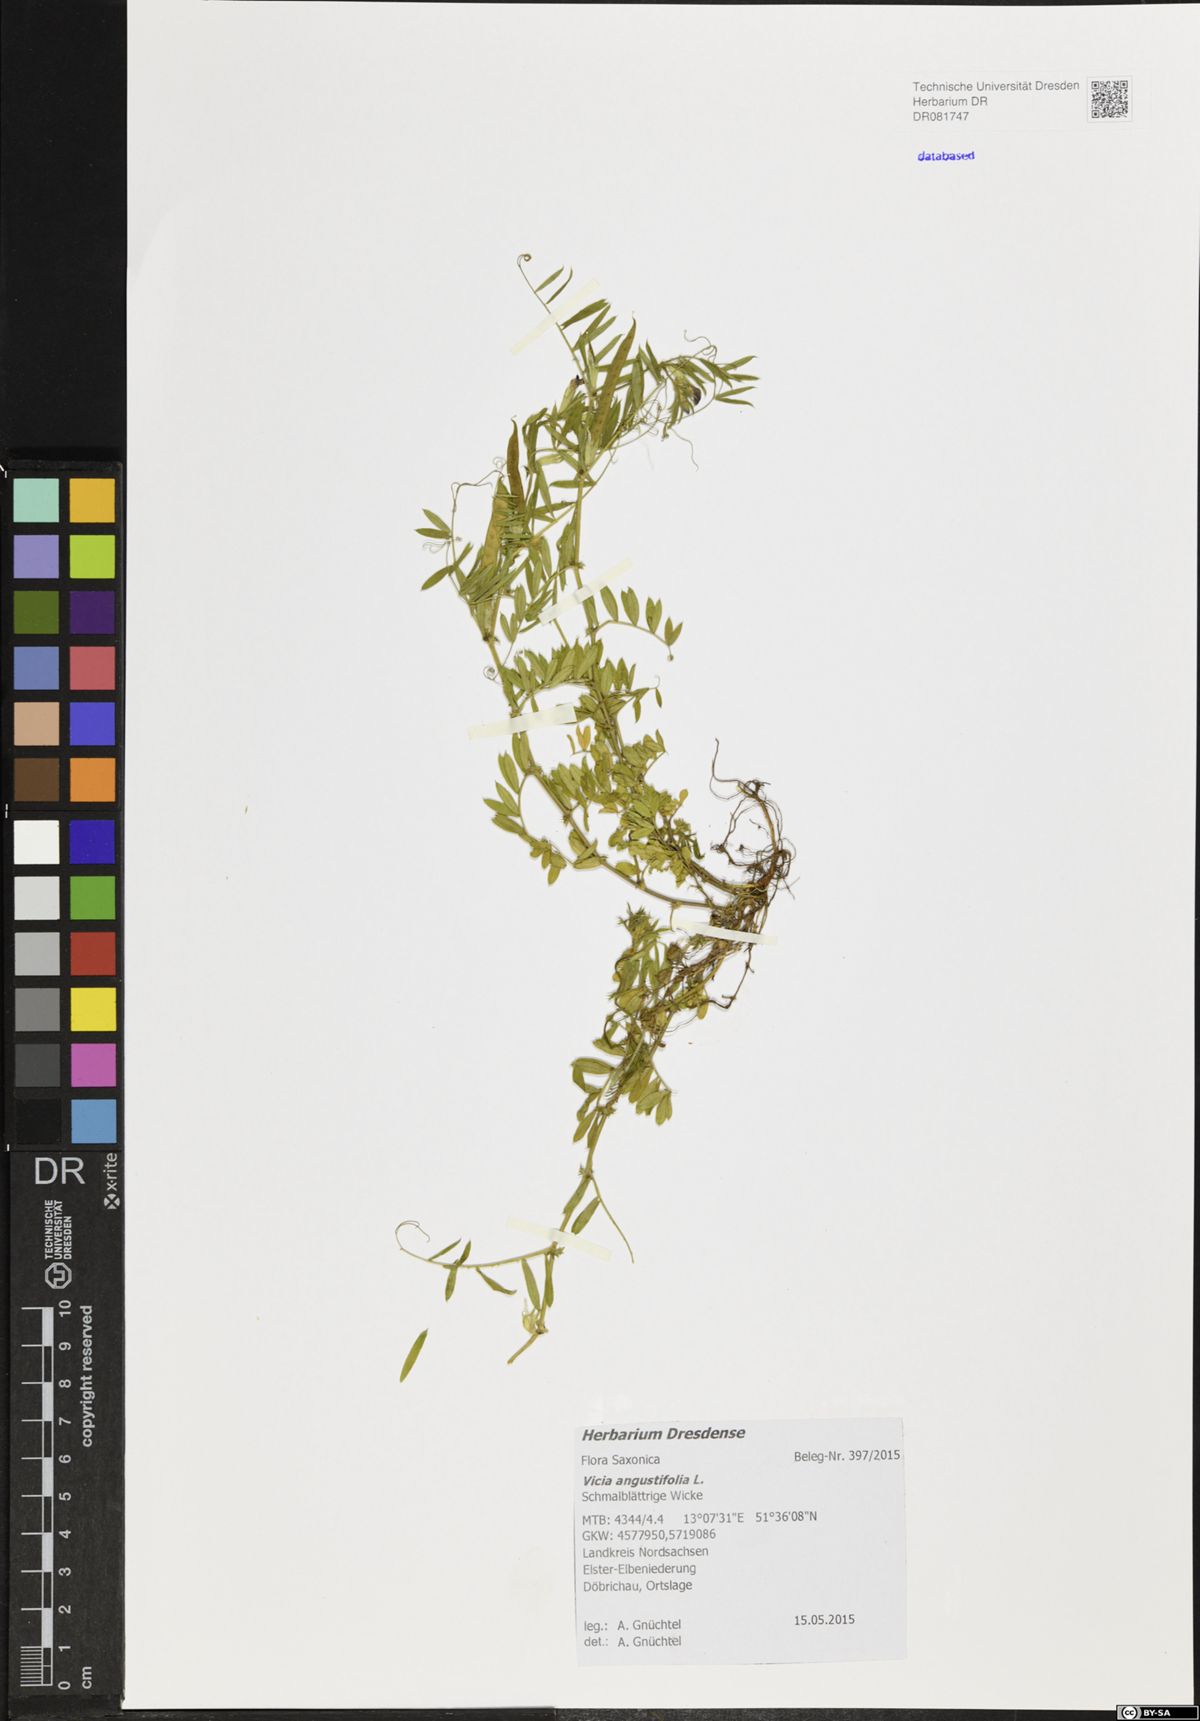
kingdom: Plantae
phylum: Tracheophyta
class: Magnoliopsida
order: Fabales
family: Fabaceae
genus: Vicia
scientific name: Vicia sativa
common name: Garden vetch
